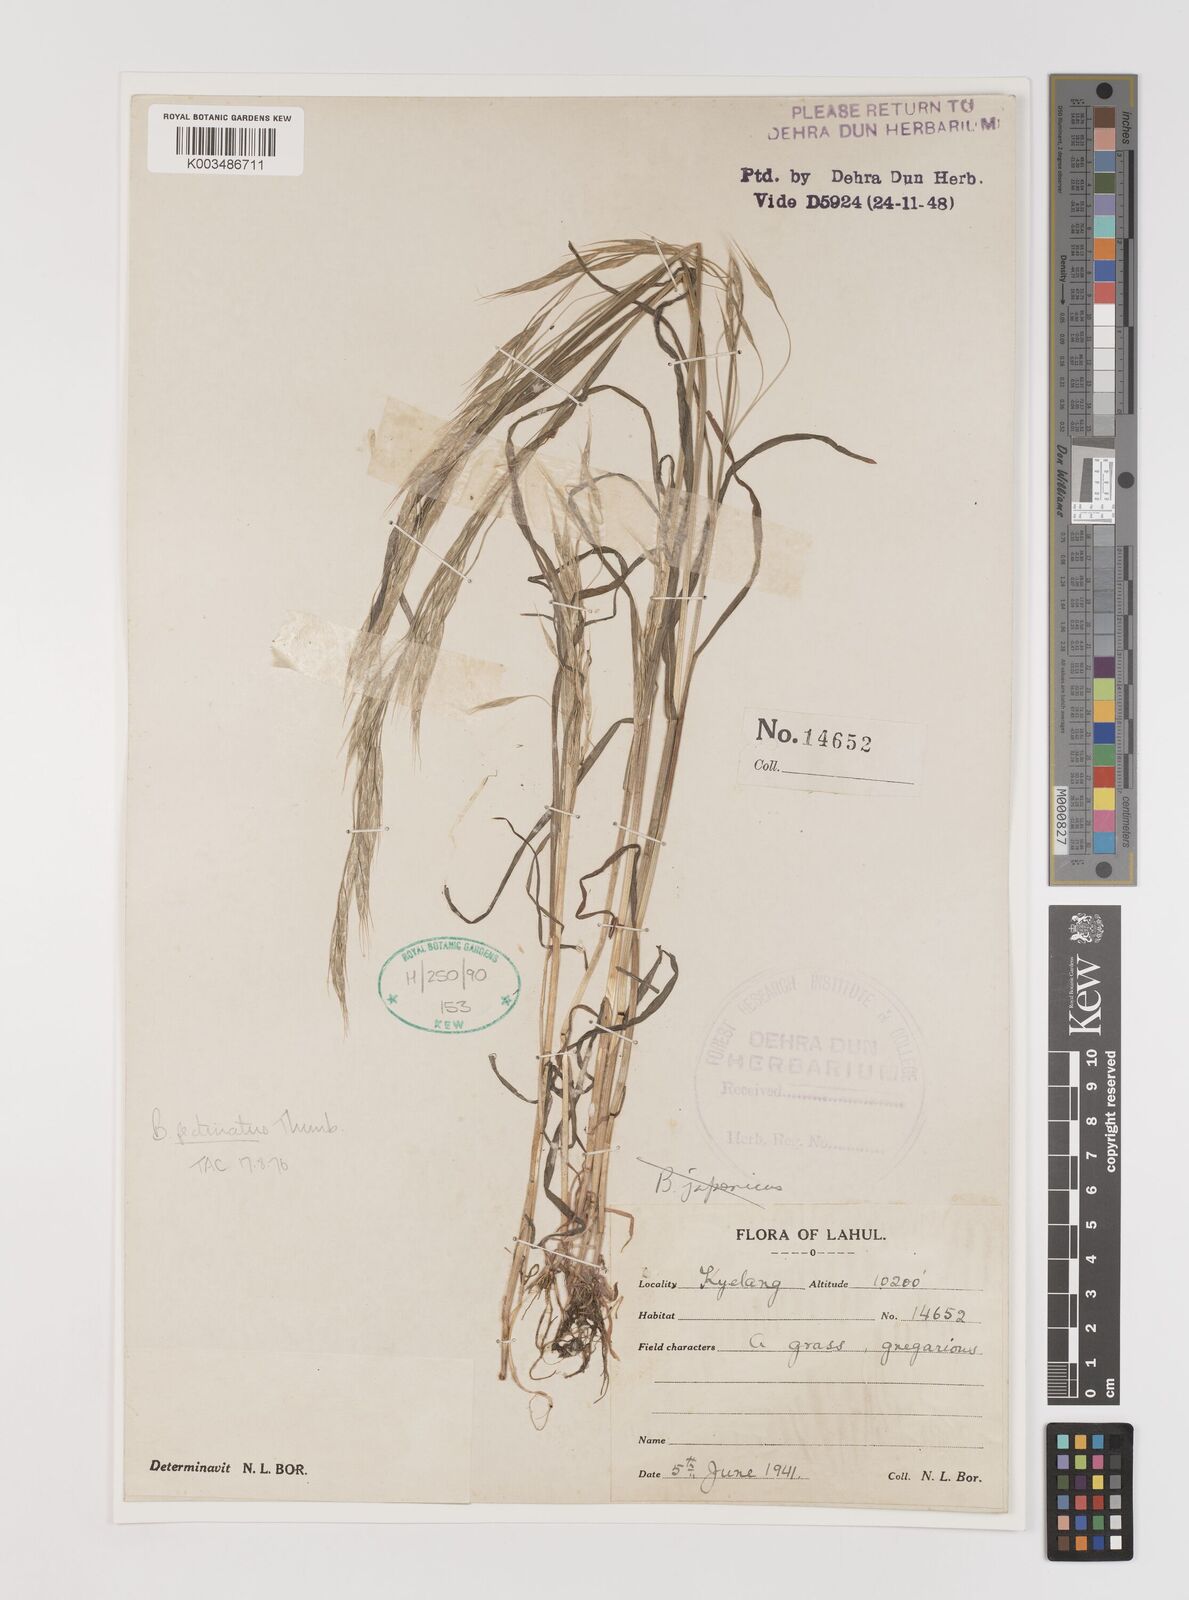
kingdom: Plantae
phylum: Tracheophyta
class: Liliopsida
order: Poales
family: Poaceae
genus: Bromus
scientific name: Bromus pectinatus
